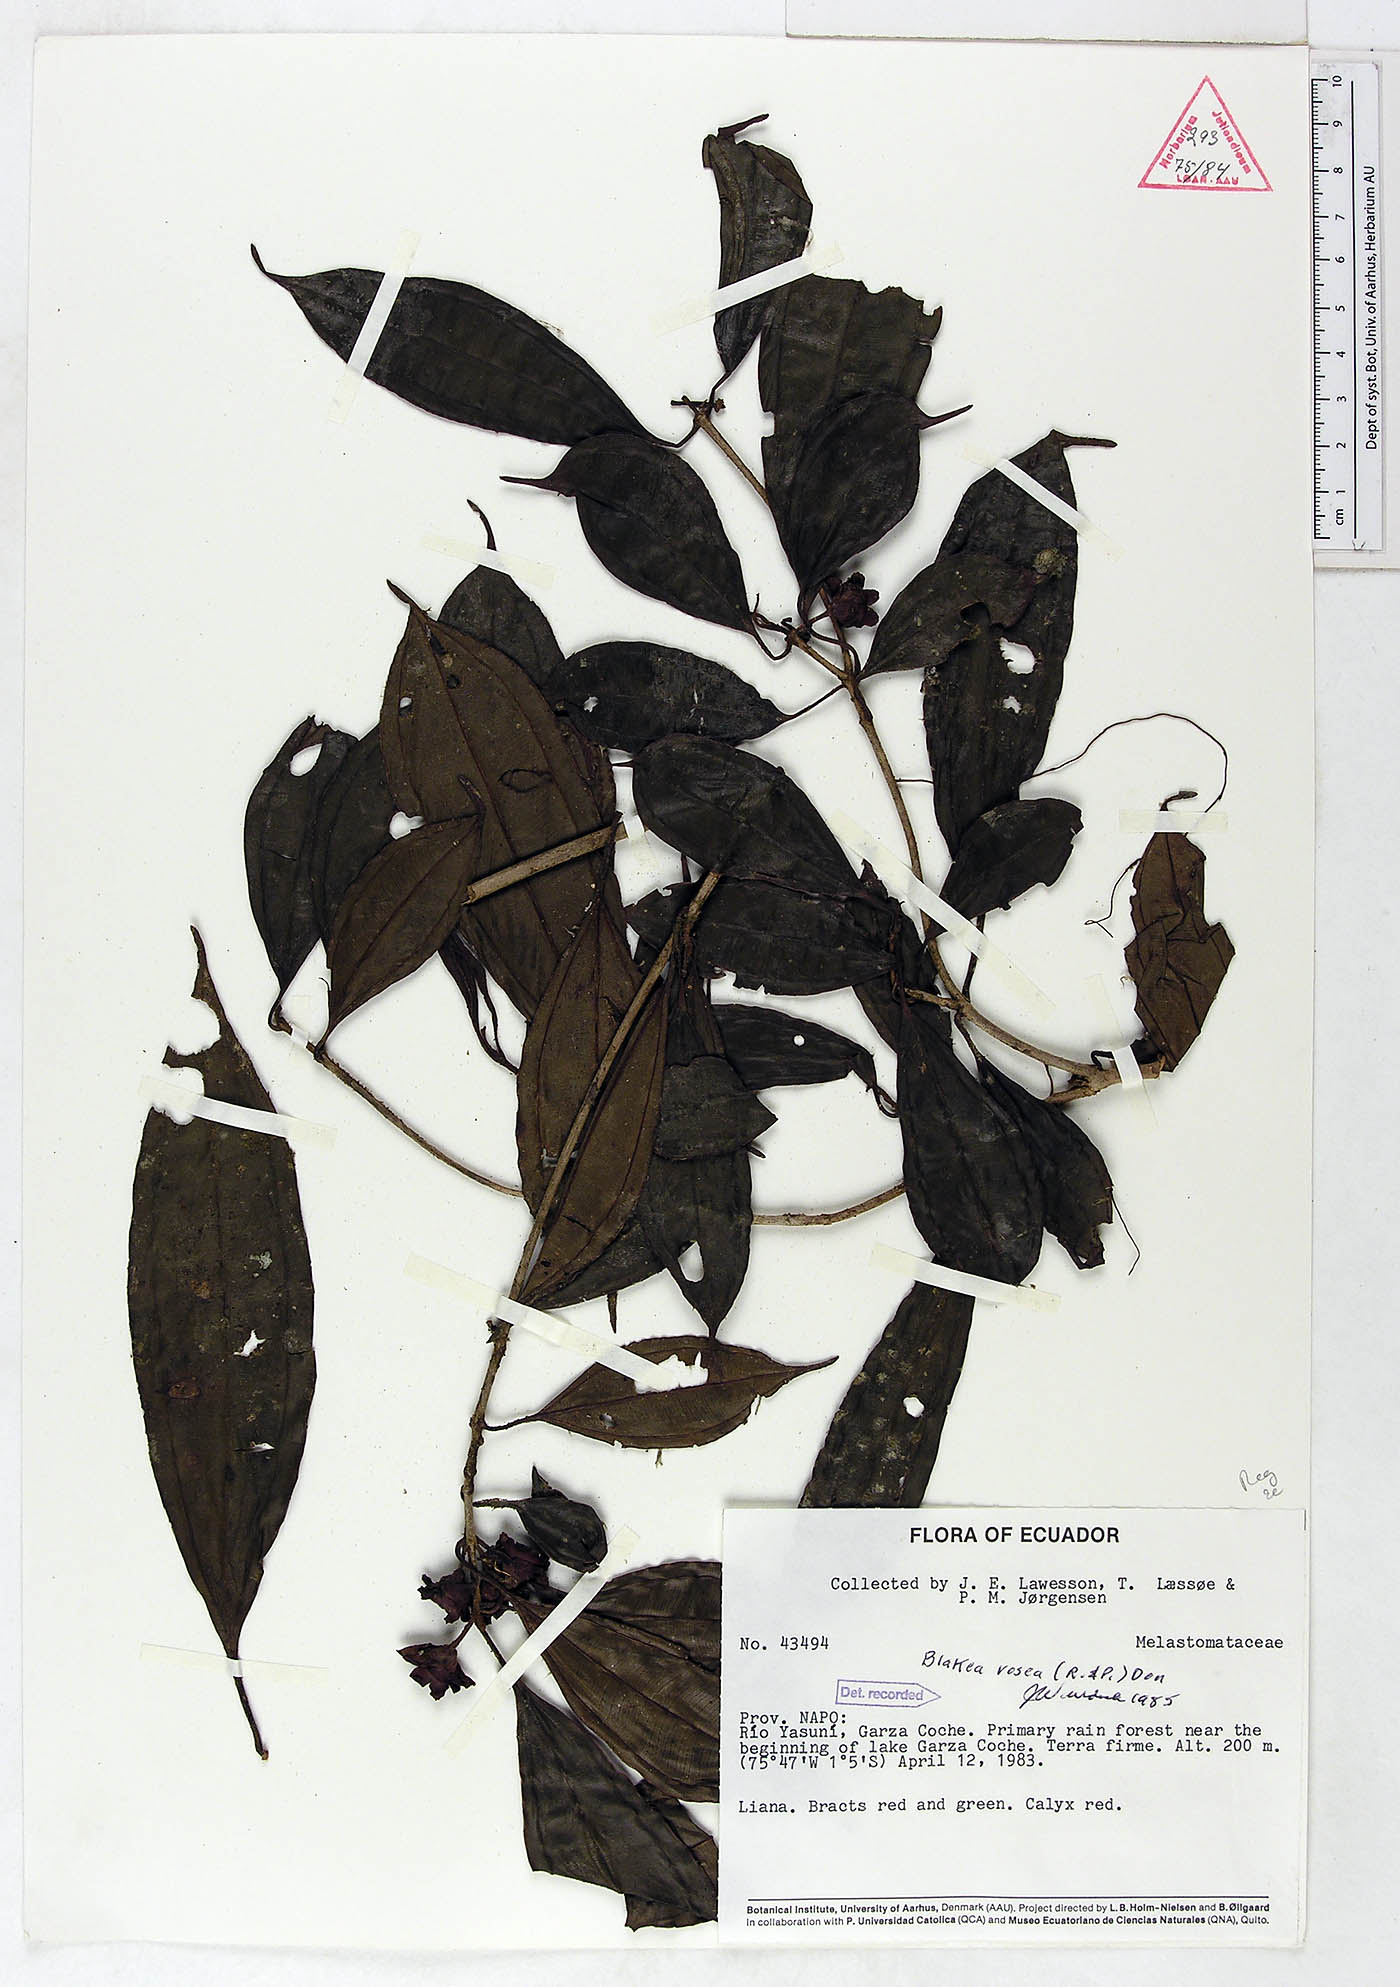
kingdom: Plantae
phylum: Tracheophyta
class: Magnoliopsida
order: Myrtales
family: Melastomataceae
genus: Blakea
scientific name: Blakea rosea
